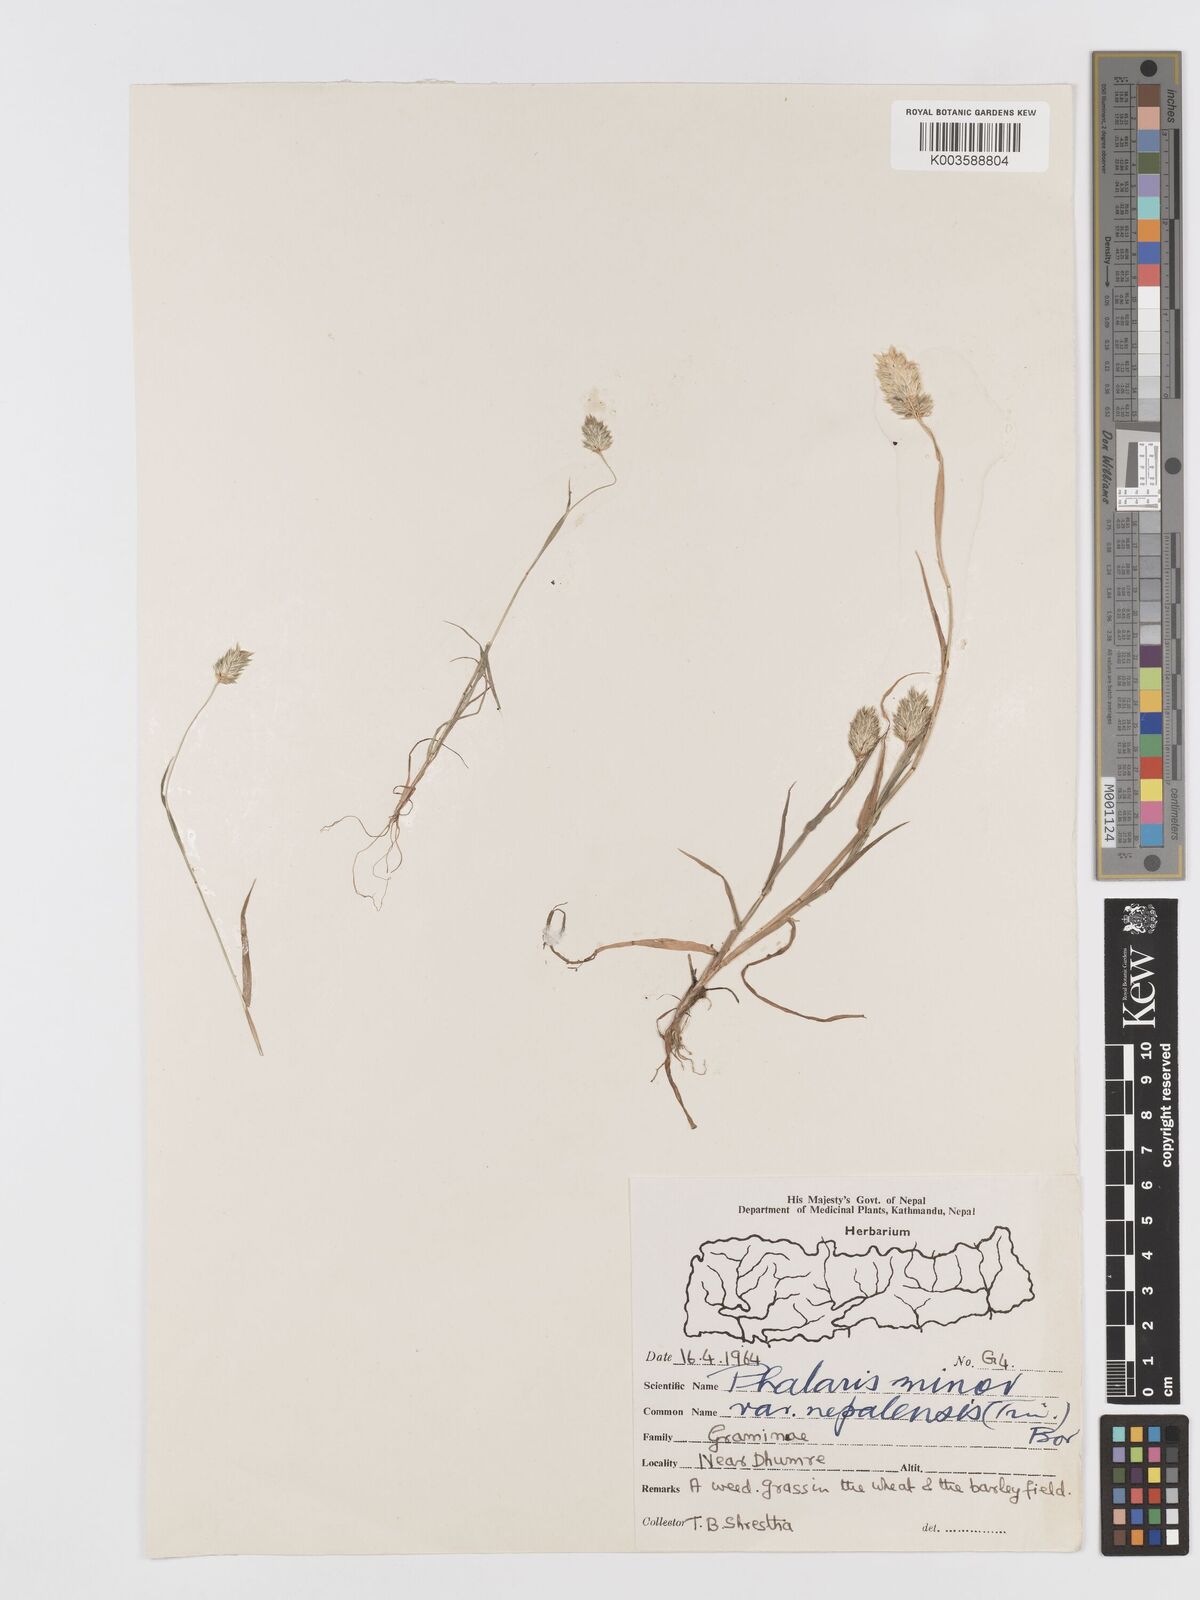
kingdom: Plantae
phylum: Tracheophyta
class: Liliopsida
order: Poales
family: Poaceae
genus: Phalaris
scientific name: Phalaris minor
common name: Littleseed canarygrass
